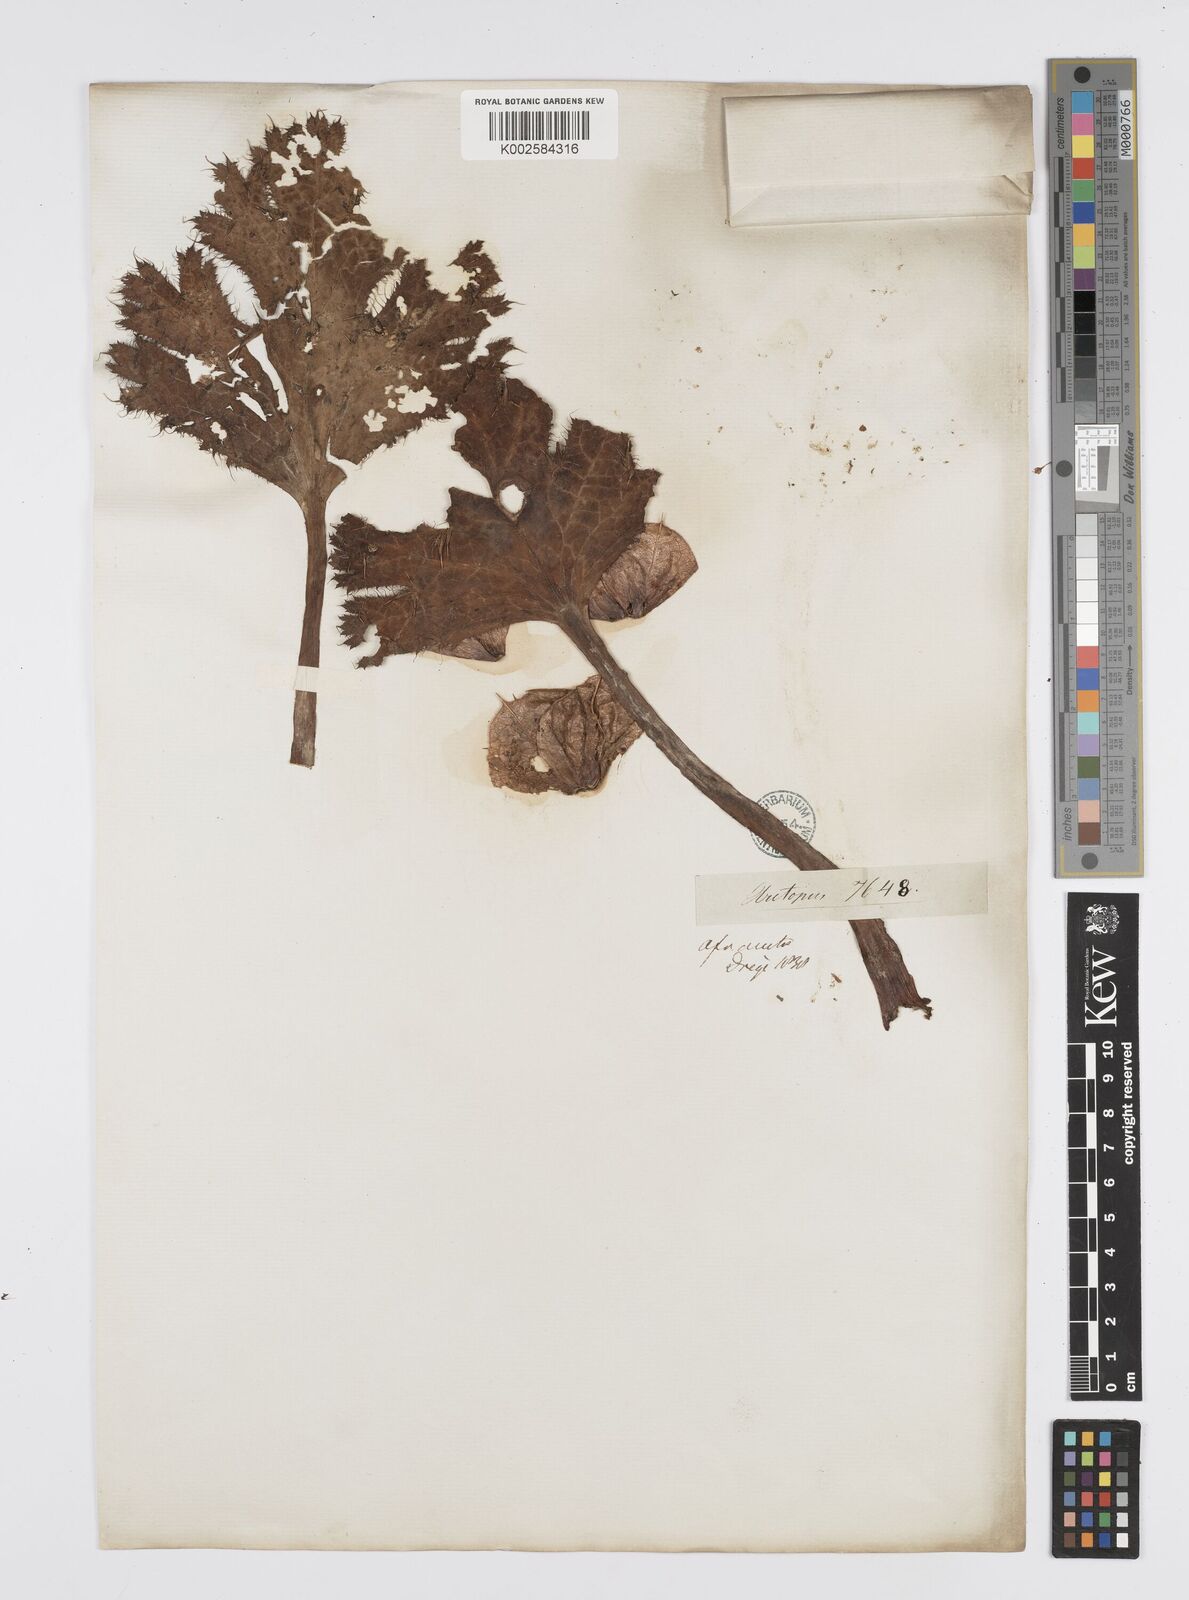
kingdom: Plantae
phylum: Tracheophyta
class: Magnoliopsida
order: Apiales
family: Apiaceae
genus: Arctopus
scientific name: Arctopus monacanthus
